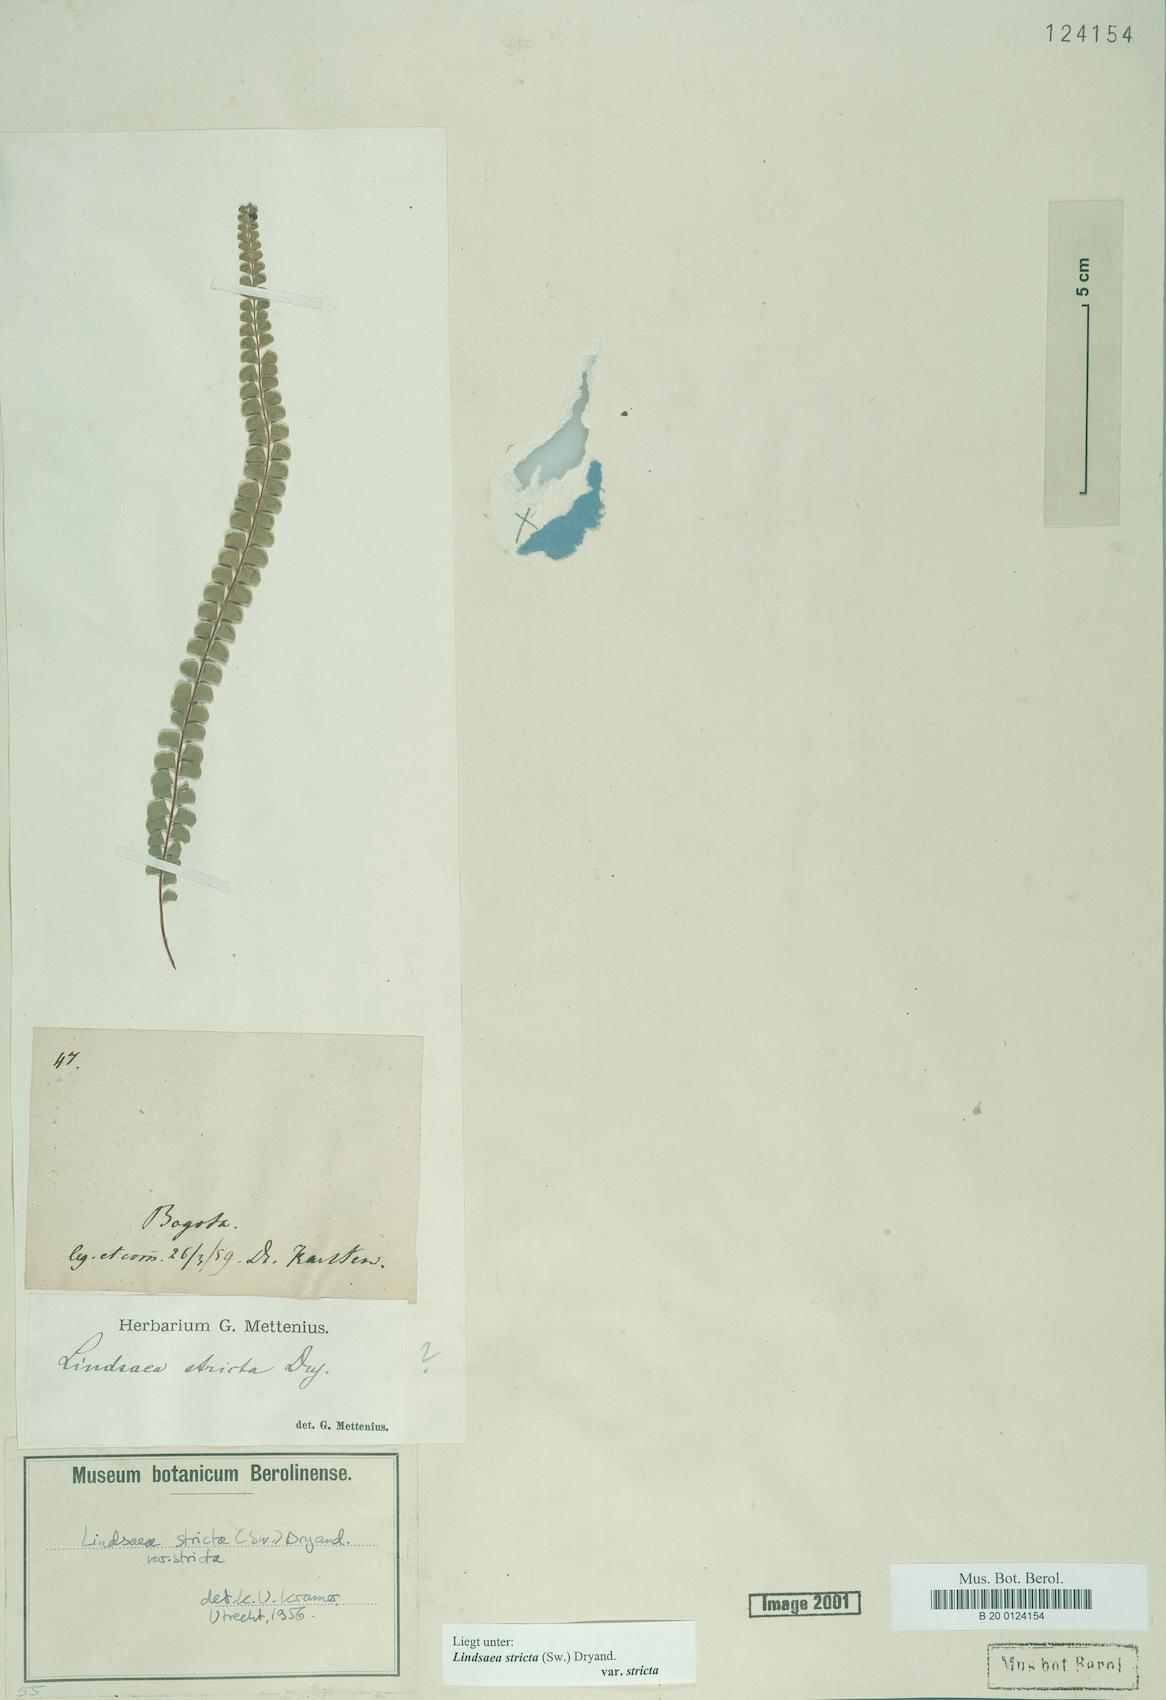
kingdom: Plantae
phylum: Tracheophyta
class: Polypodiopsida
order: Polypodiales
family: Lindsaeaceae
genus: Lindsaea
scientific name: Lindsaea stricta
